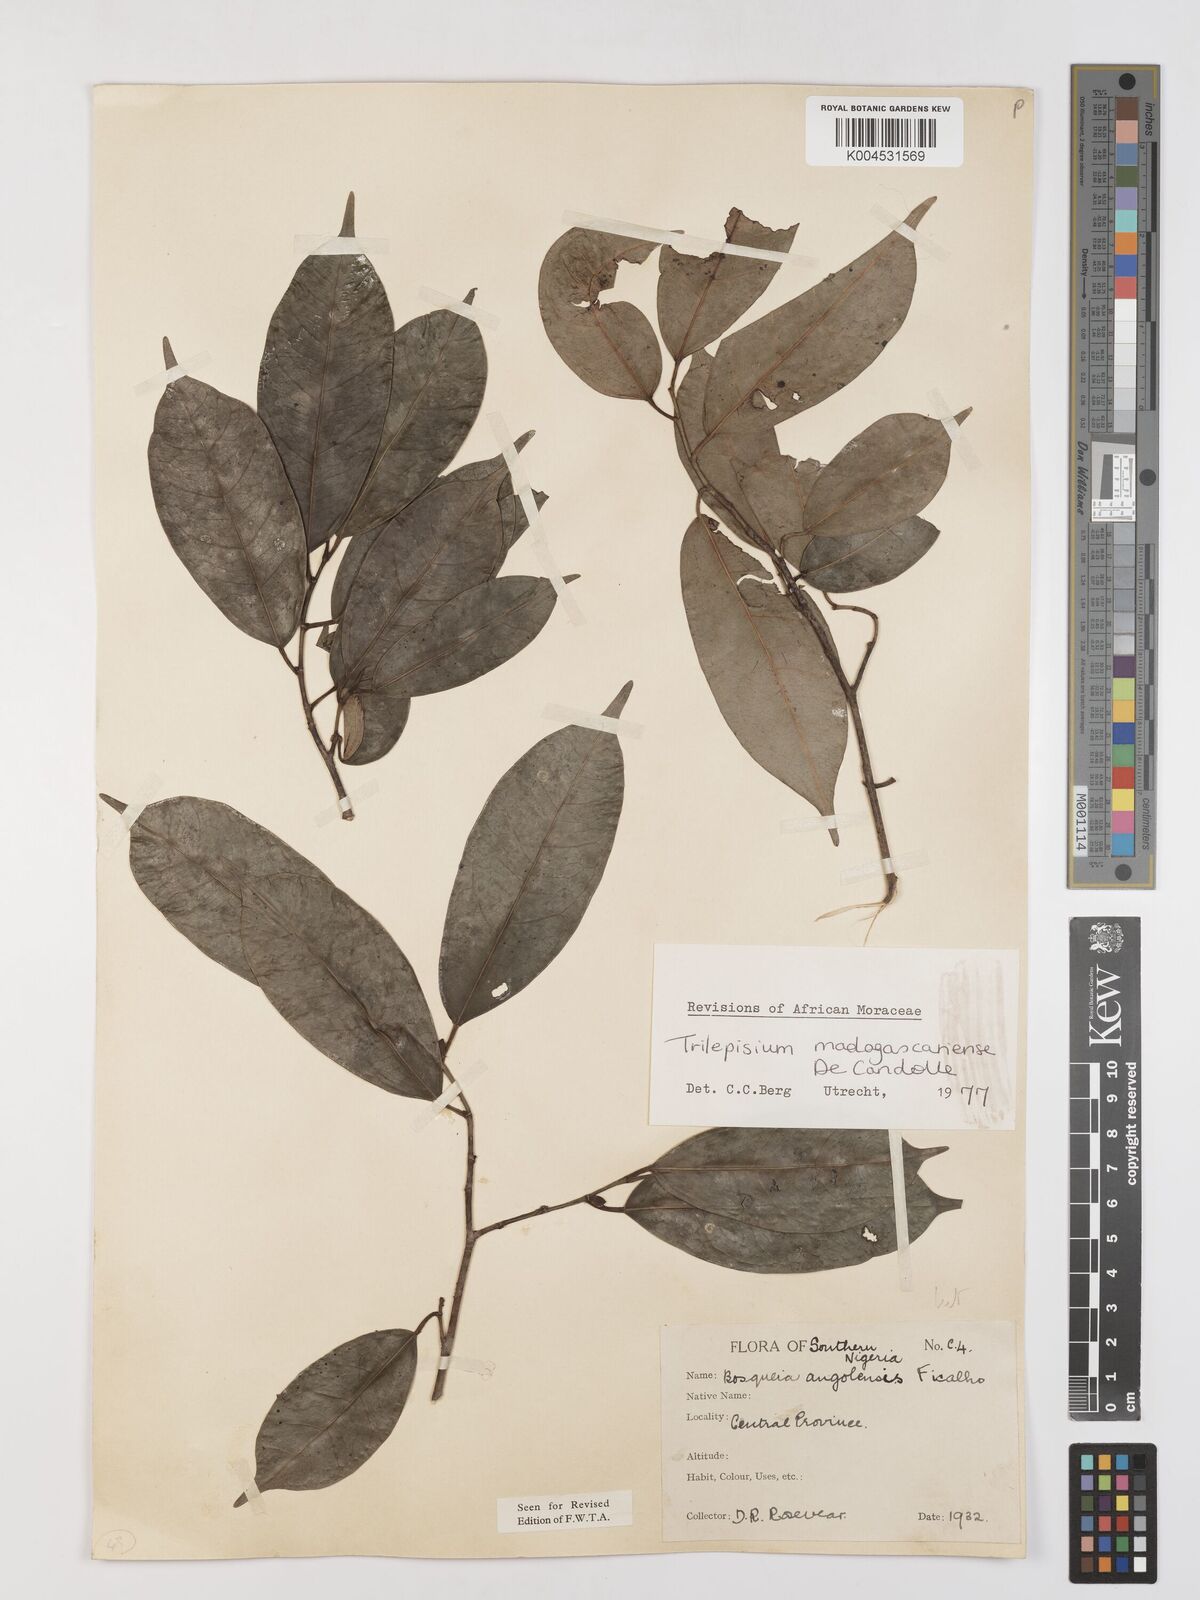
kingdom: Plantae
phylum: Tracheophyta
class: Magnoliopsida
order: Rosales
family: Moraceae
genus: Trilepisium
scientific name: Trilepisium madagascariense
